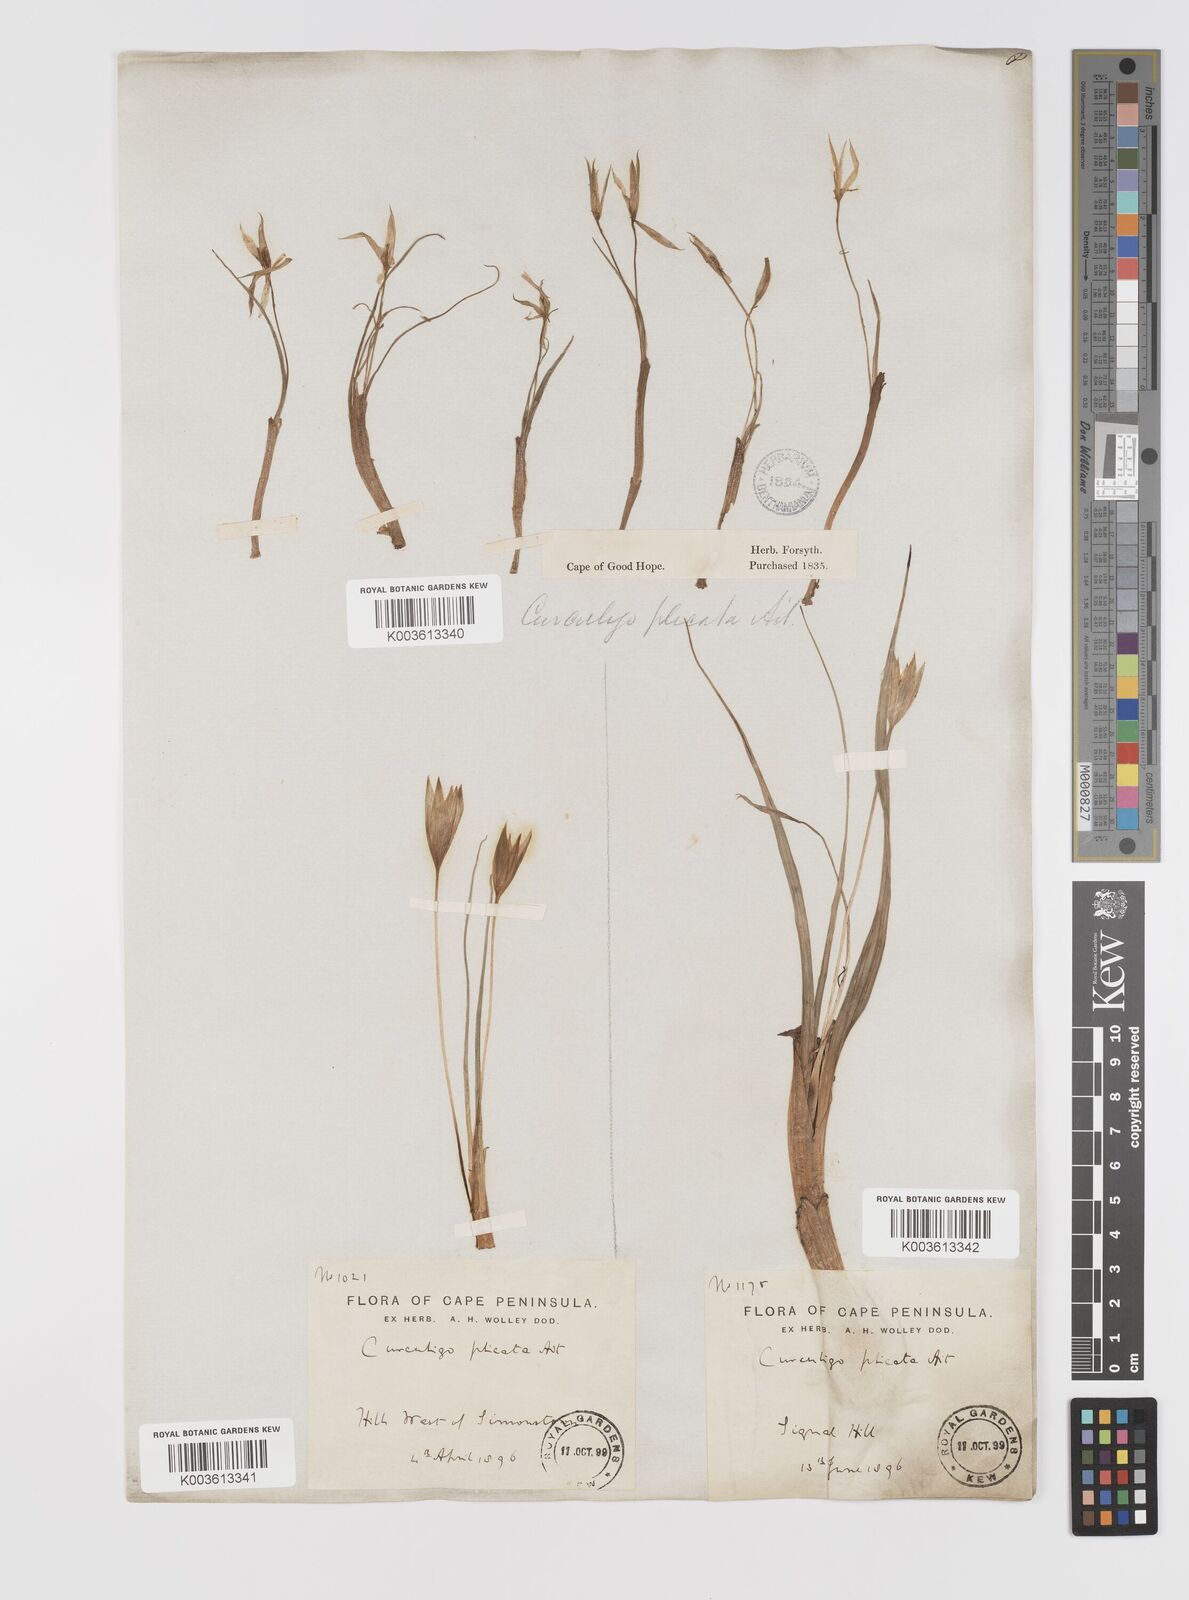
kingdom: Plantae
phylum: Tracheophyta
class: Liliopsida
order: Asparagales
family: Hypoxidaceae
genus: Empodium
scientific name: Empodium plicatum
